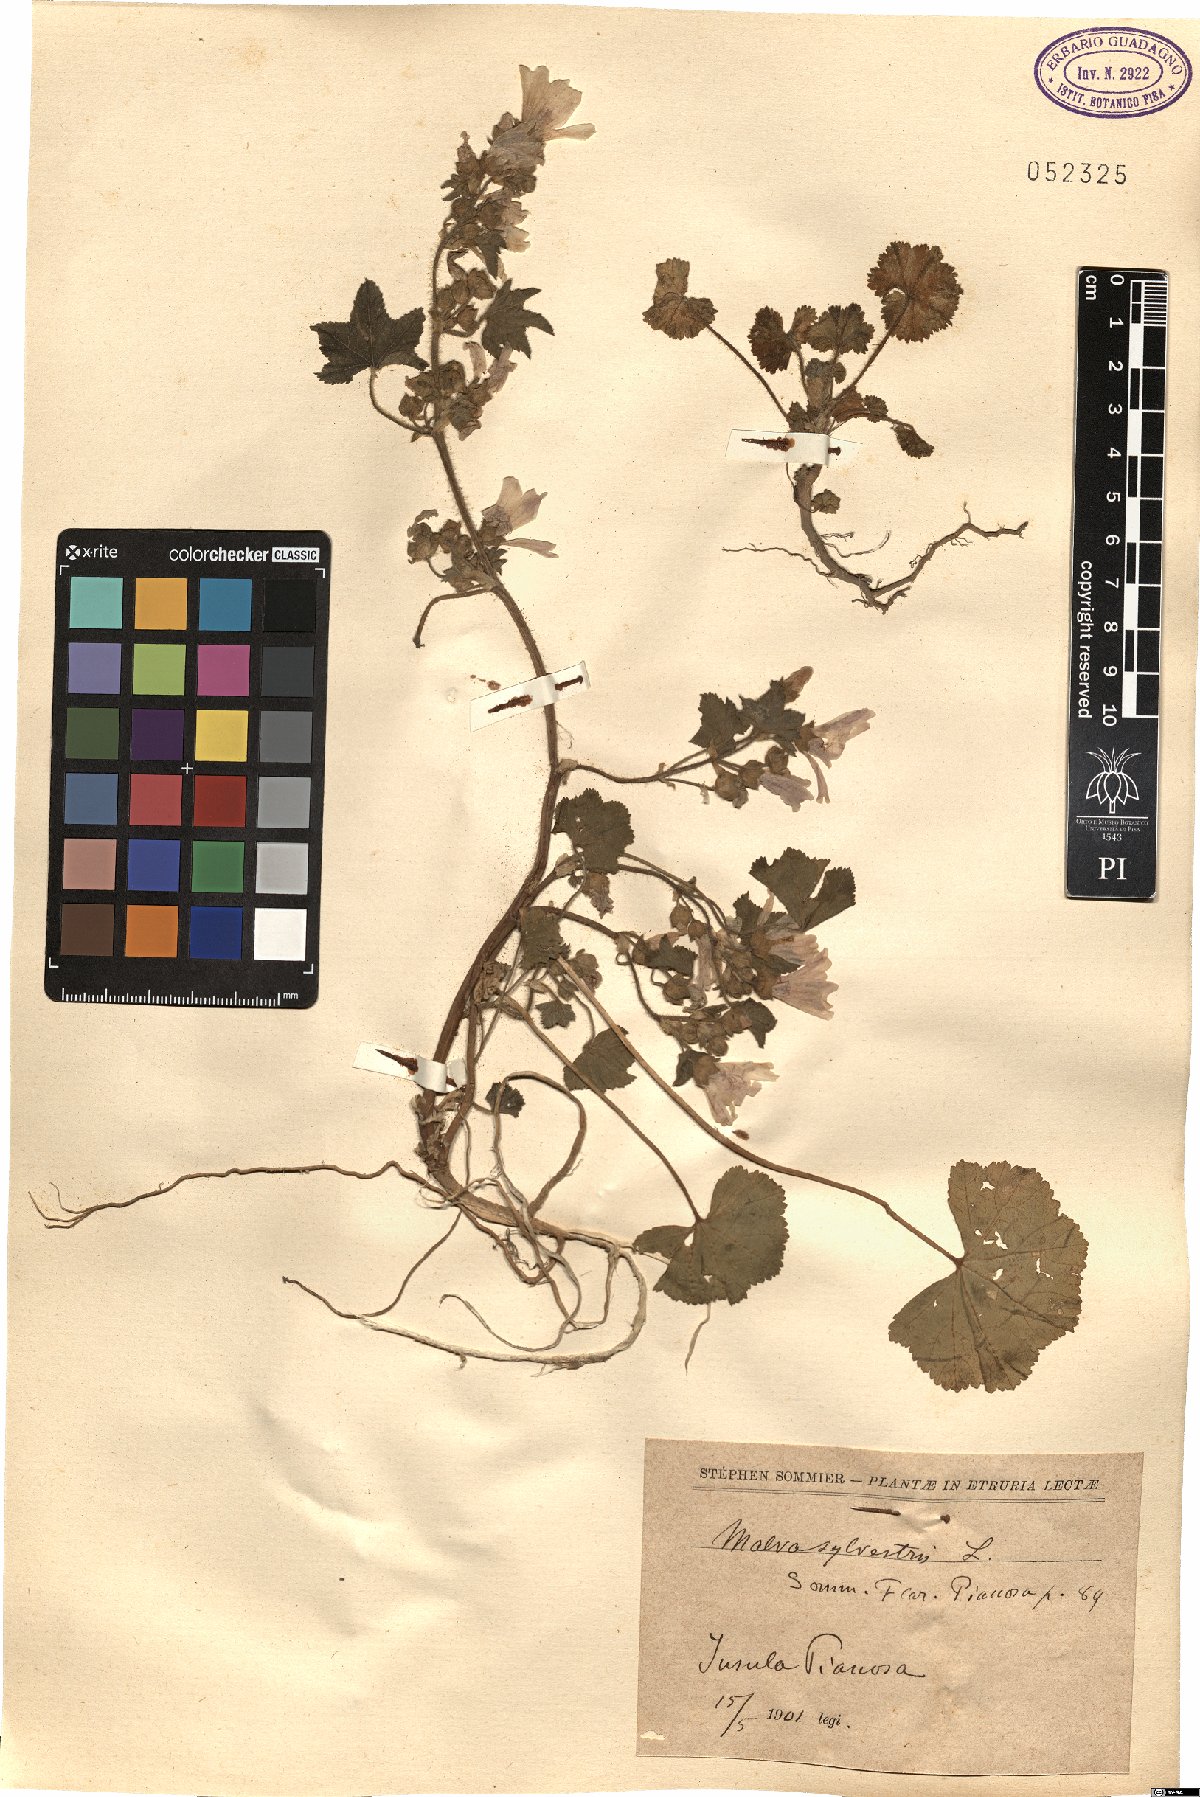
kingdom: Plantae
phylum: Tracheophyta
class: Magnoliopsida
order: Malvales
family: Malvaceae
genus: Malva
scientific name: Malva sylvestris
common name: Common mallow
